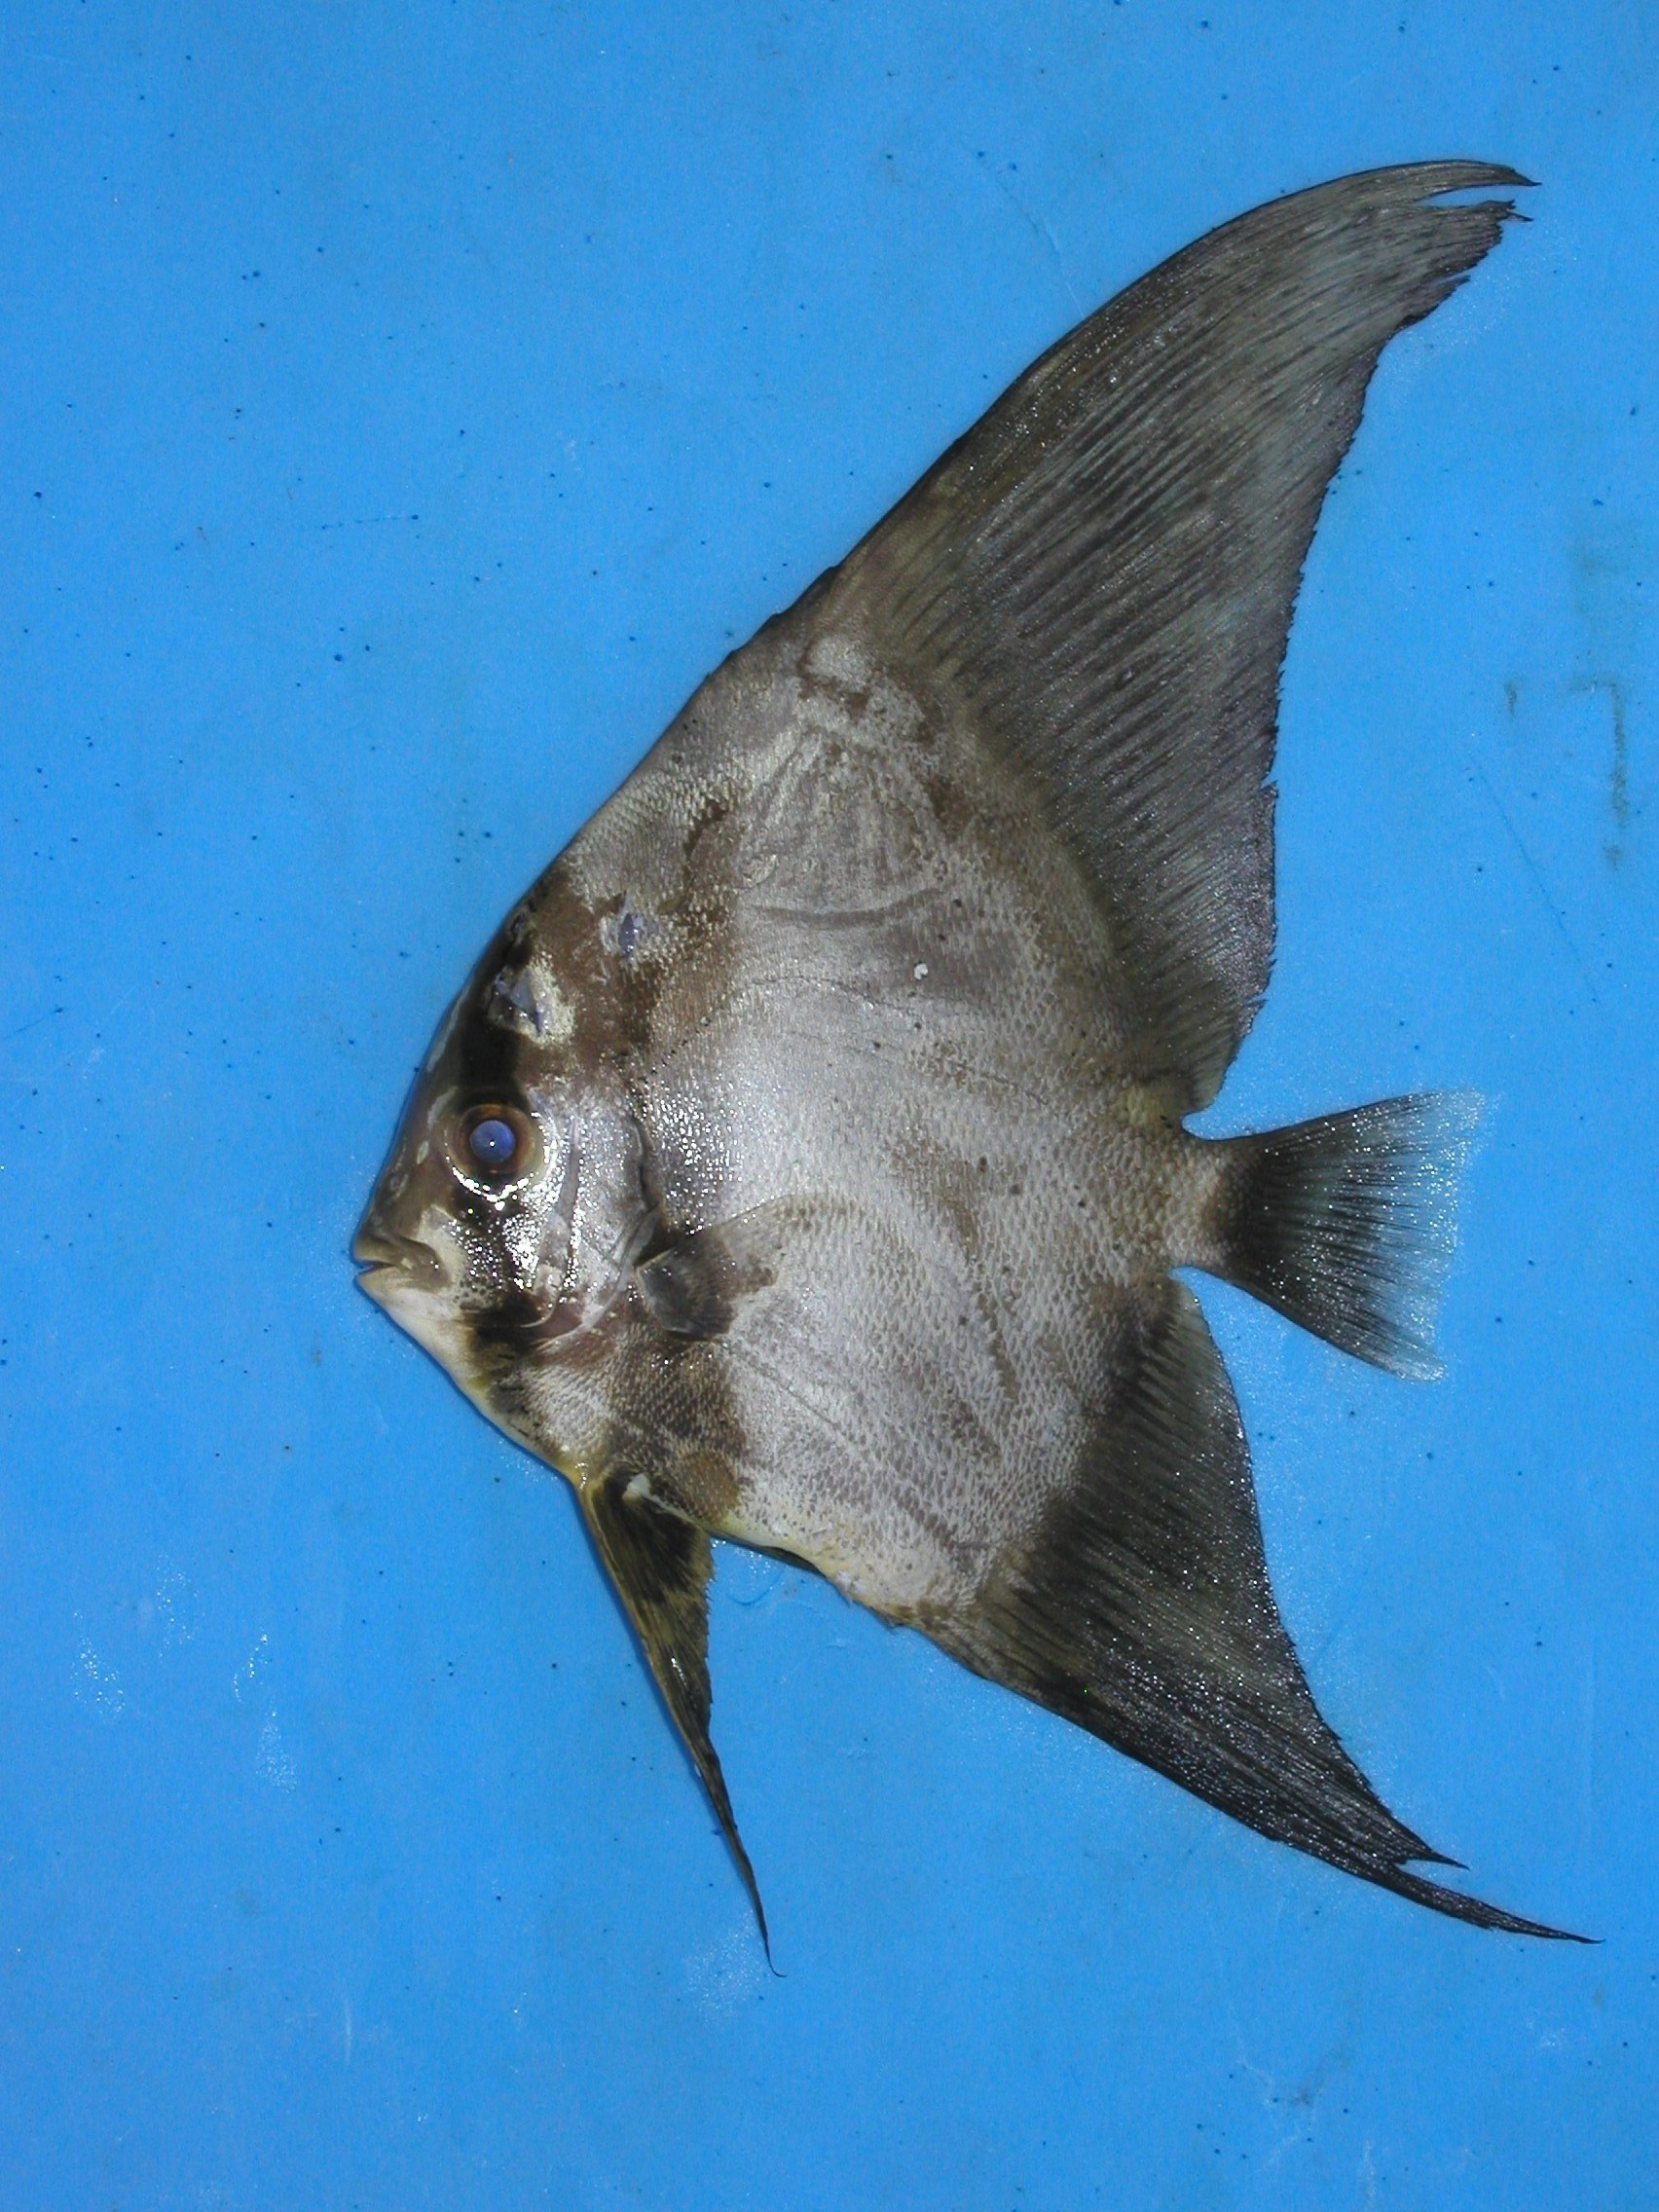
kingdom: Animalia
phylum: Chordata
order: Perciformes
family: Ephippidae
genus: Platax
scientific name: Platax orbicularis
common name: Batfish
